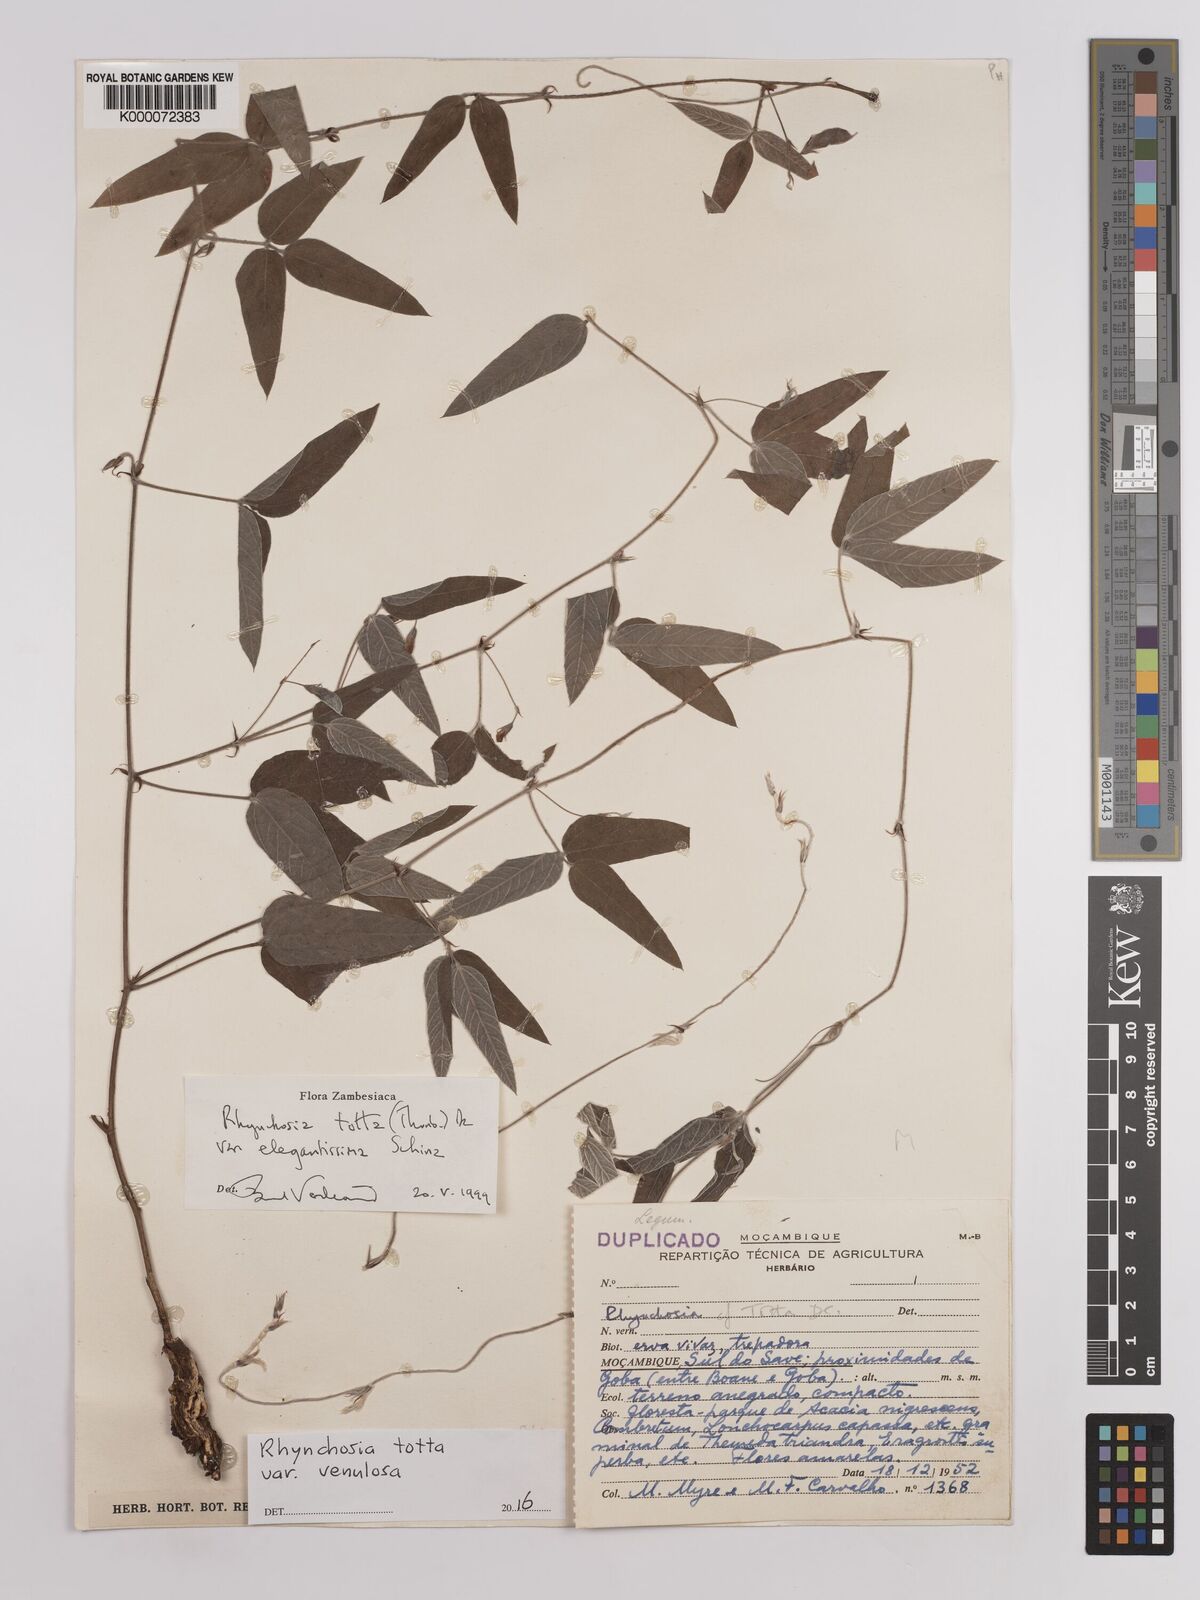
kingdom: Plantae
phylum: Tracheophyta
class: Magnoliopsida
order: Fabales
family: Fabaceae
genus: Rhynchosia
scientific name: Rhynchosia totta
